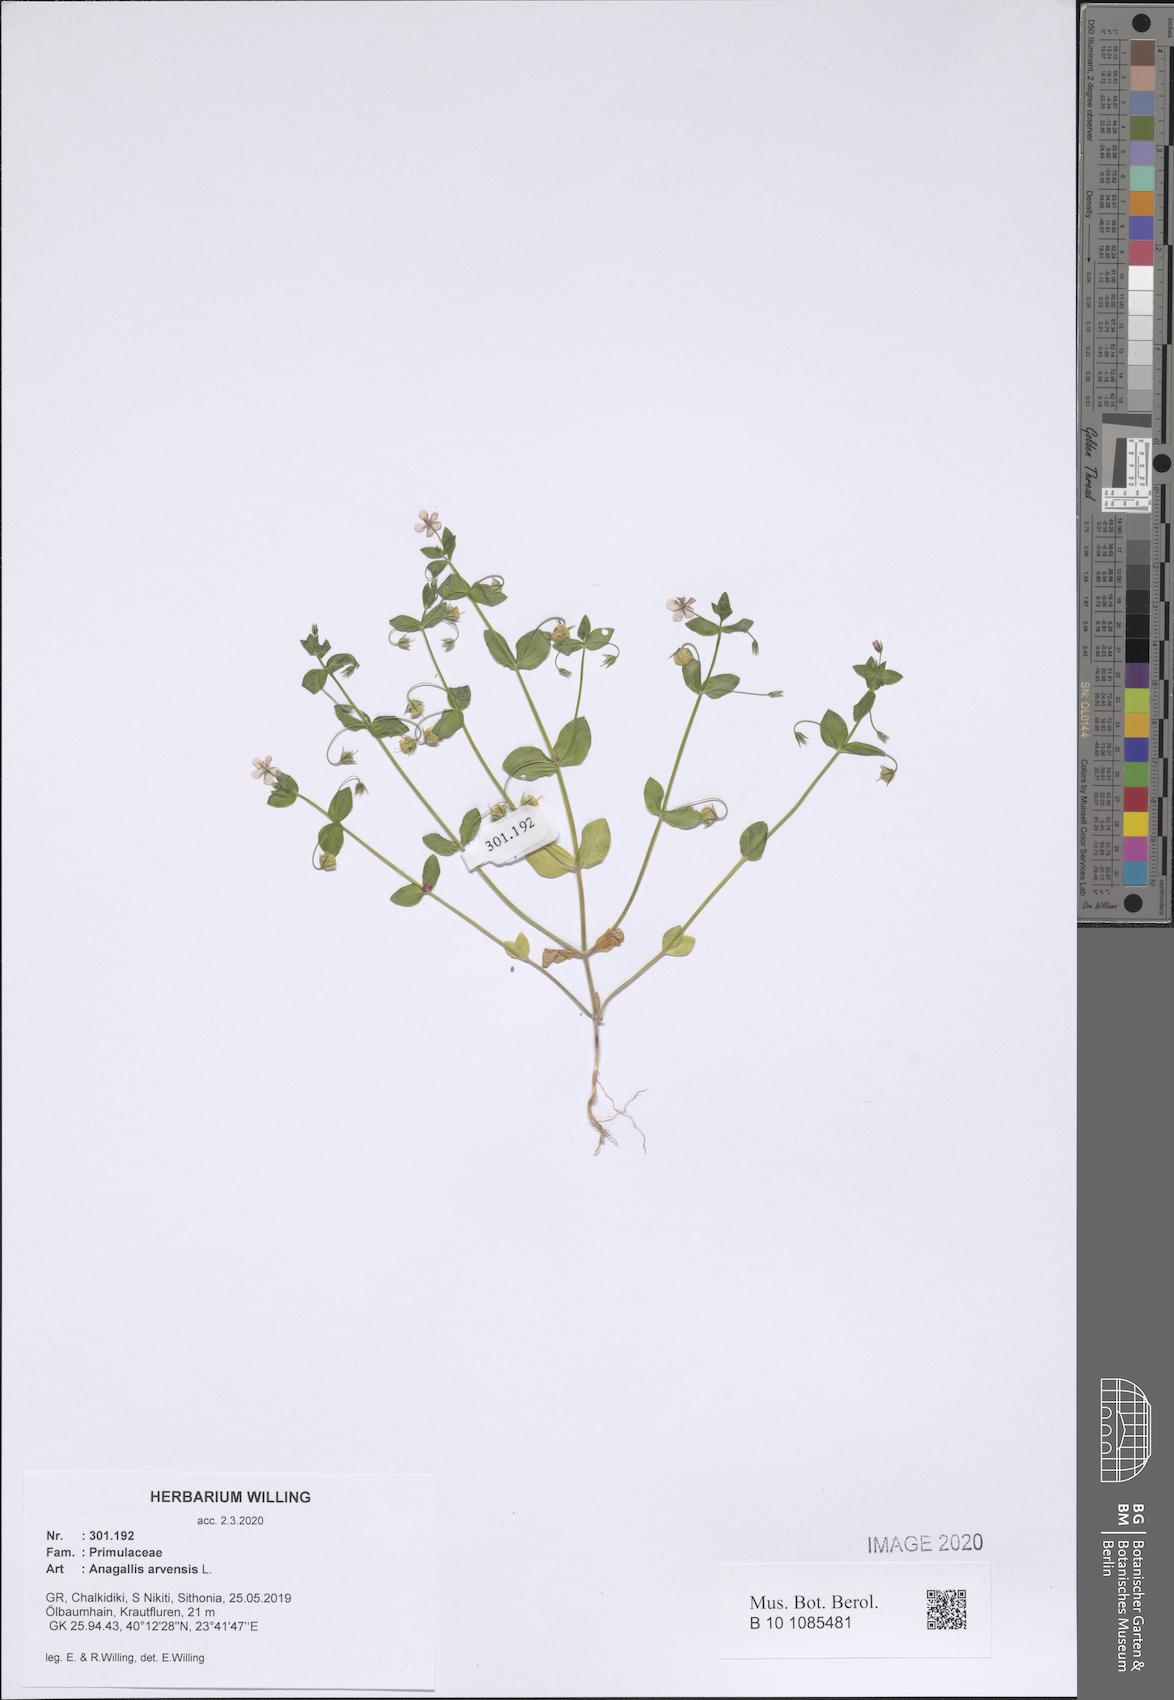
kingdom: Plantae
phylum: Tracheophyta
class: Magnoliopsida
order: Ericales
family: Primulaceae
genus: Lysimachia
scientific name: Lysimachia arvensis
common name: Scarlet pimpernel
